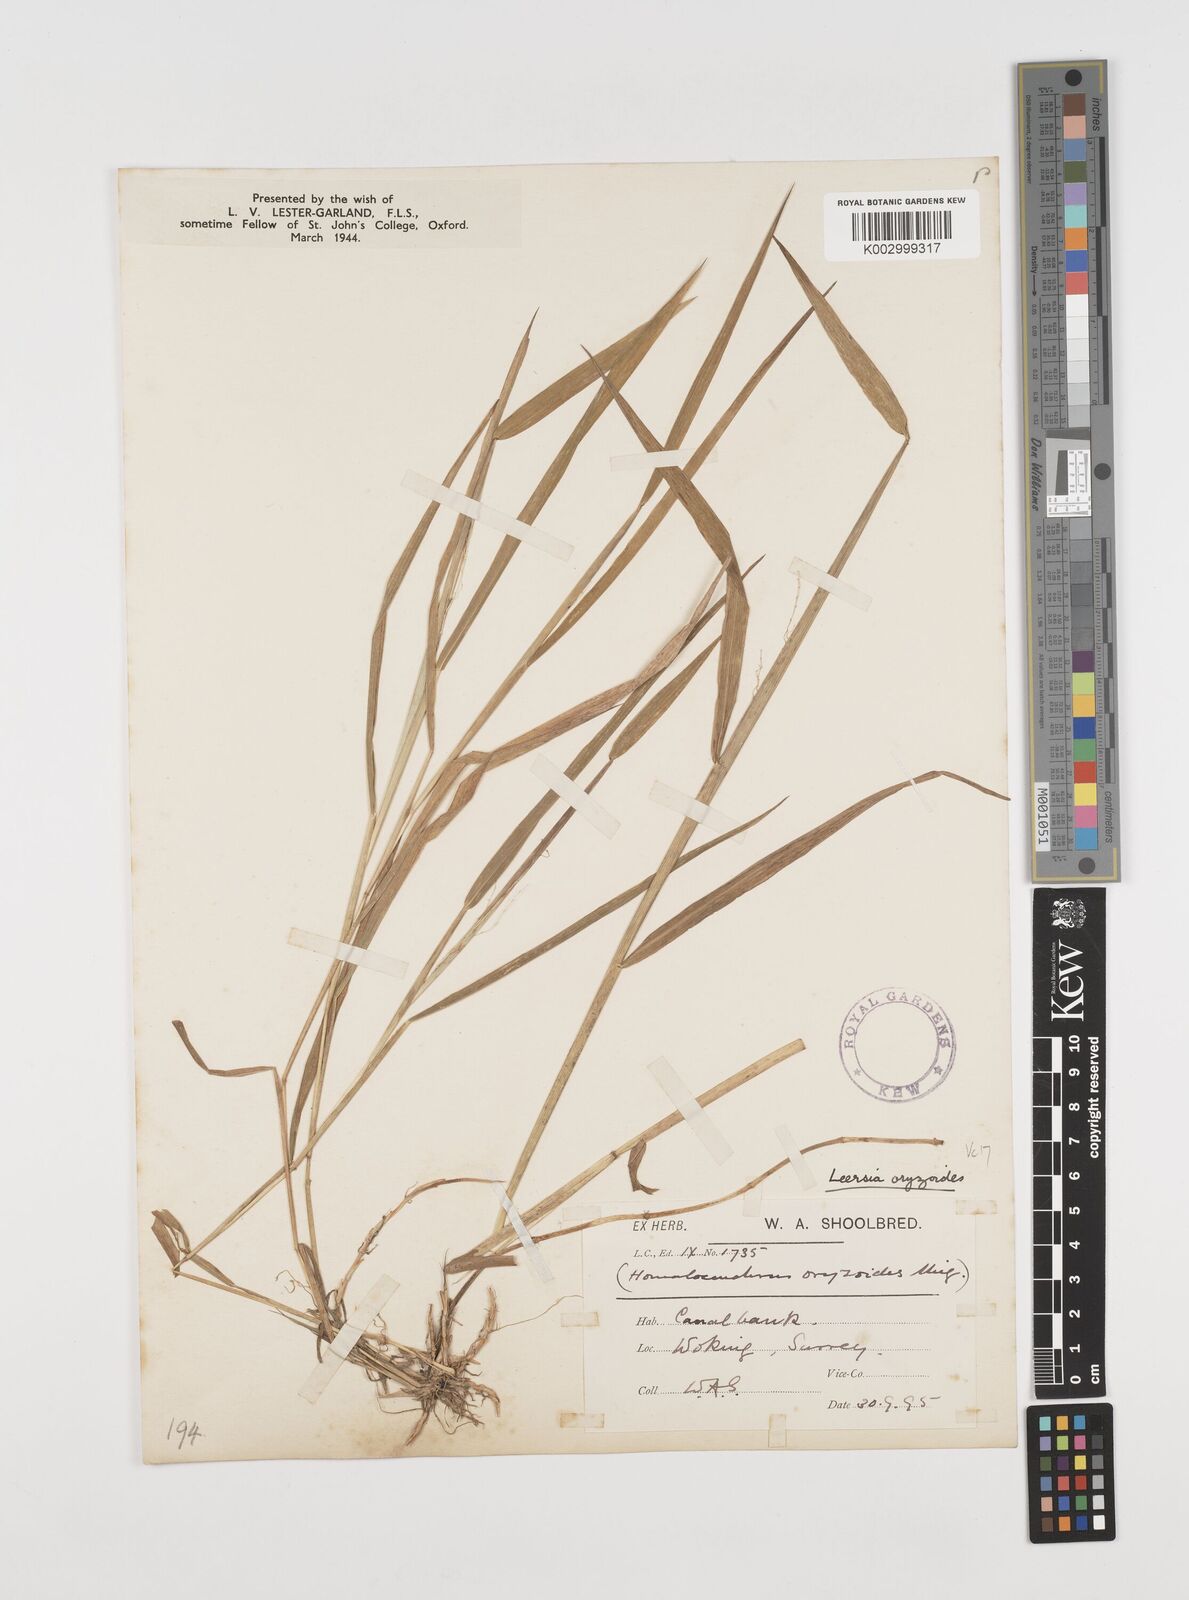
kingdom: Plantae
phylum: Tracheophyta
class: Liliopsida
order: Poales
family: Poaceae
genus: Leersia
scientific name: Leersia oryzoides
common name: Cut-grass
